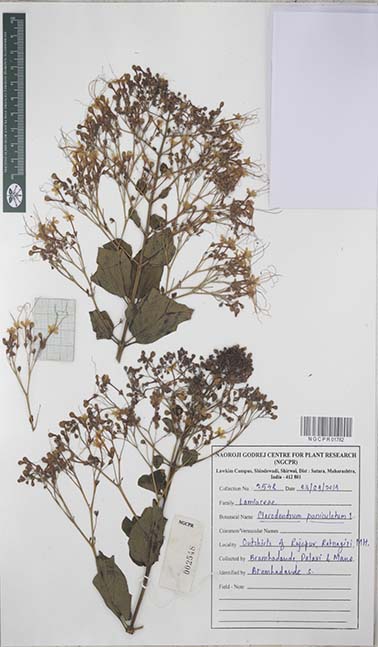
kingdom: Plantae
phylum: Tracheophyta
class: Magnoliopsida
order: Lamiales
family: Lamiaceae
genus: Clerodendrum
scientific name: Clerodendrum paniculatum
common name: Pagoda-flower
